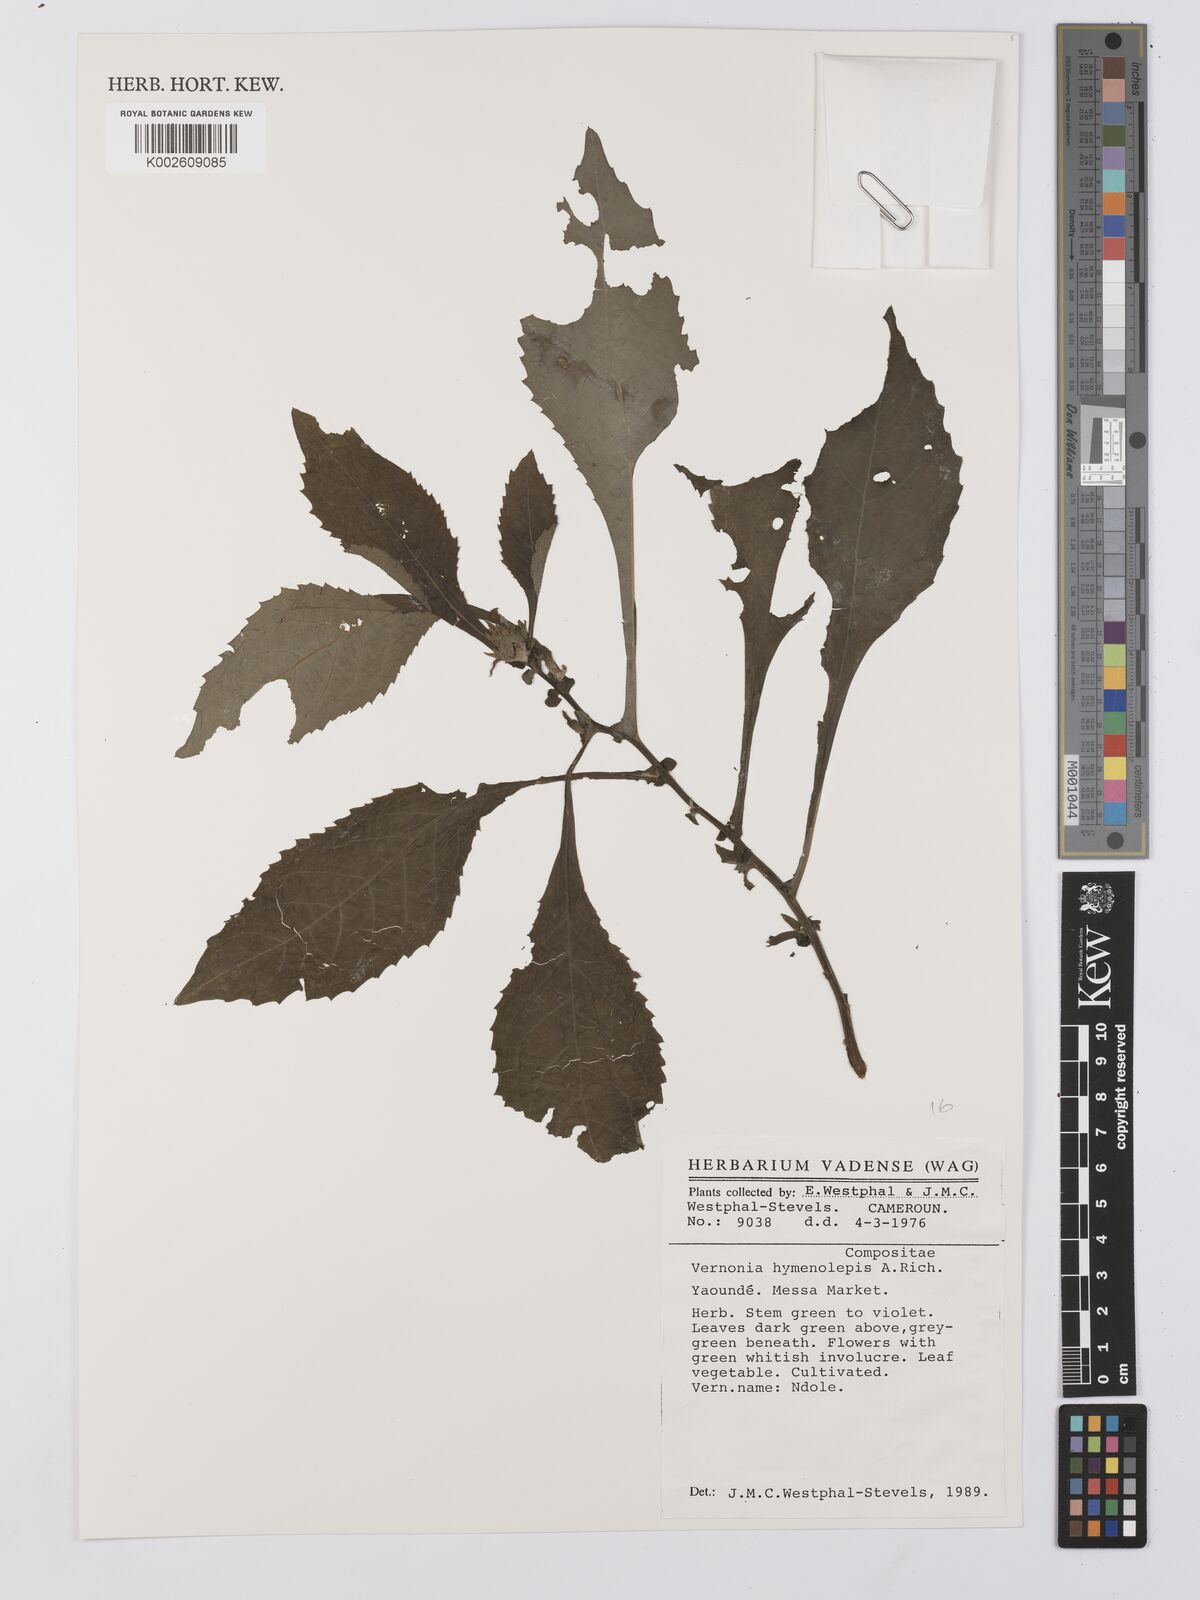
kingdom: Plantae
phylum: Tracheophyta
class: Magnoliopsida
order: Asterales
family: Asteraceae
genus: Baccharoides
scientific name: Baccharoides hymenolepis
